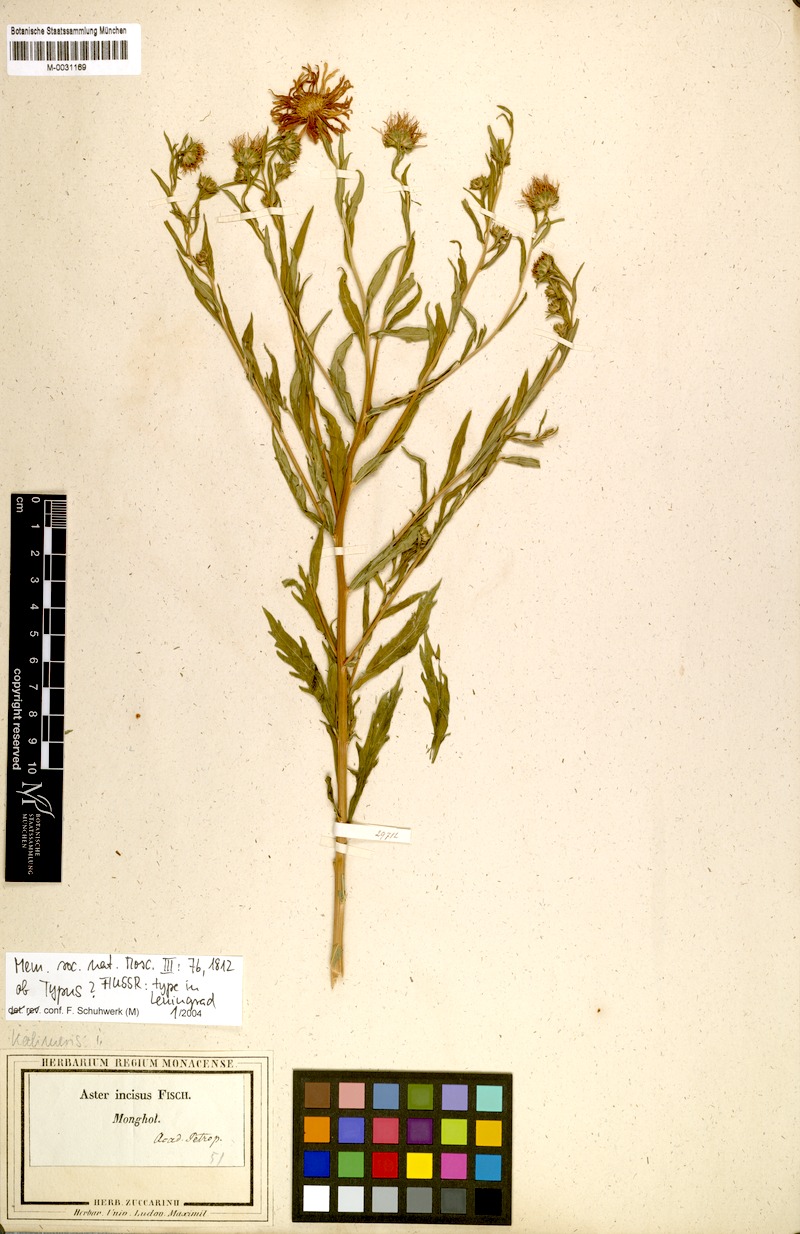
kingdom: Plantae
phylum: Tracheophyta
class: Magnoliopsida
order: Asterales
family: Asteraceae
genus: Kalimeris
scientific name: Kalimeris incisa
